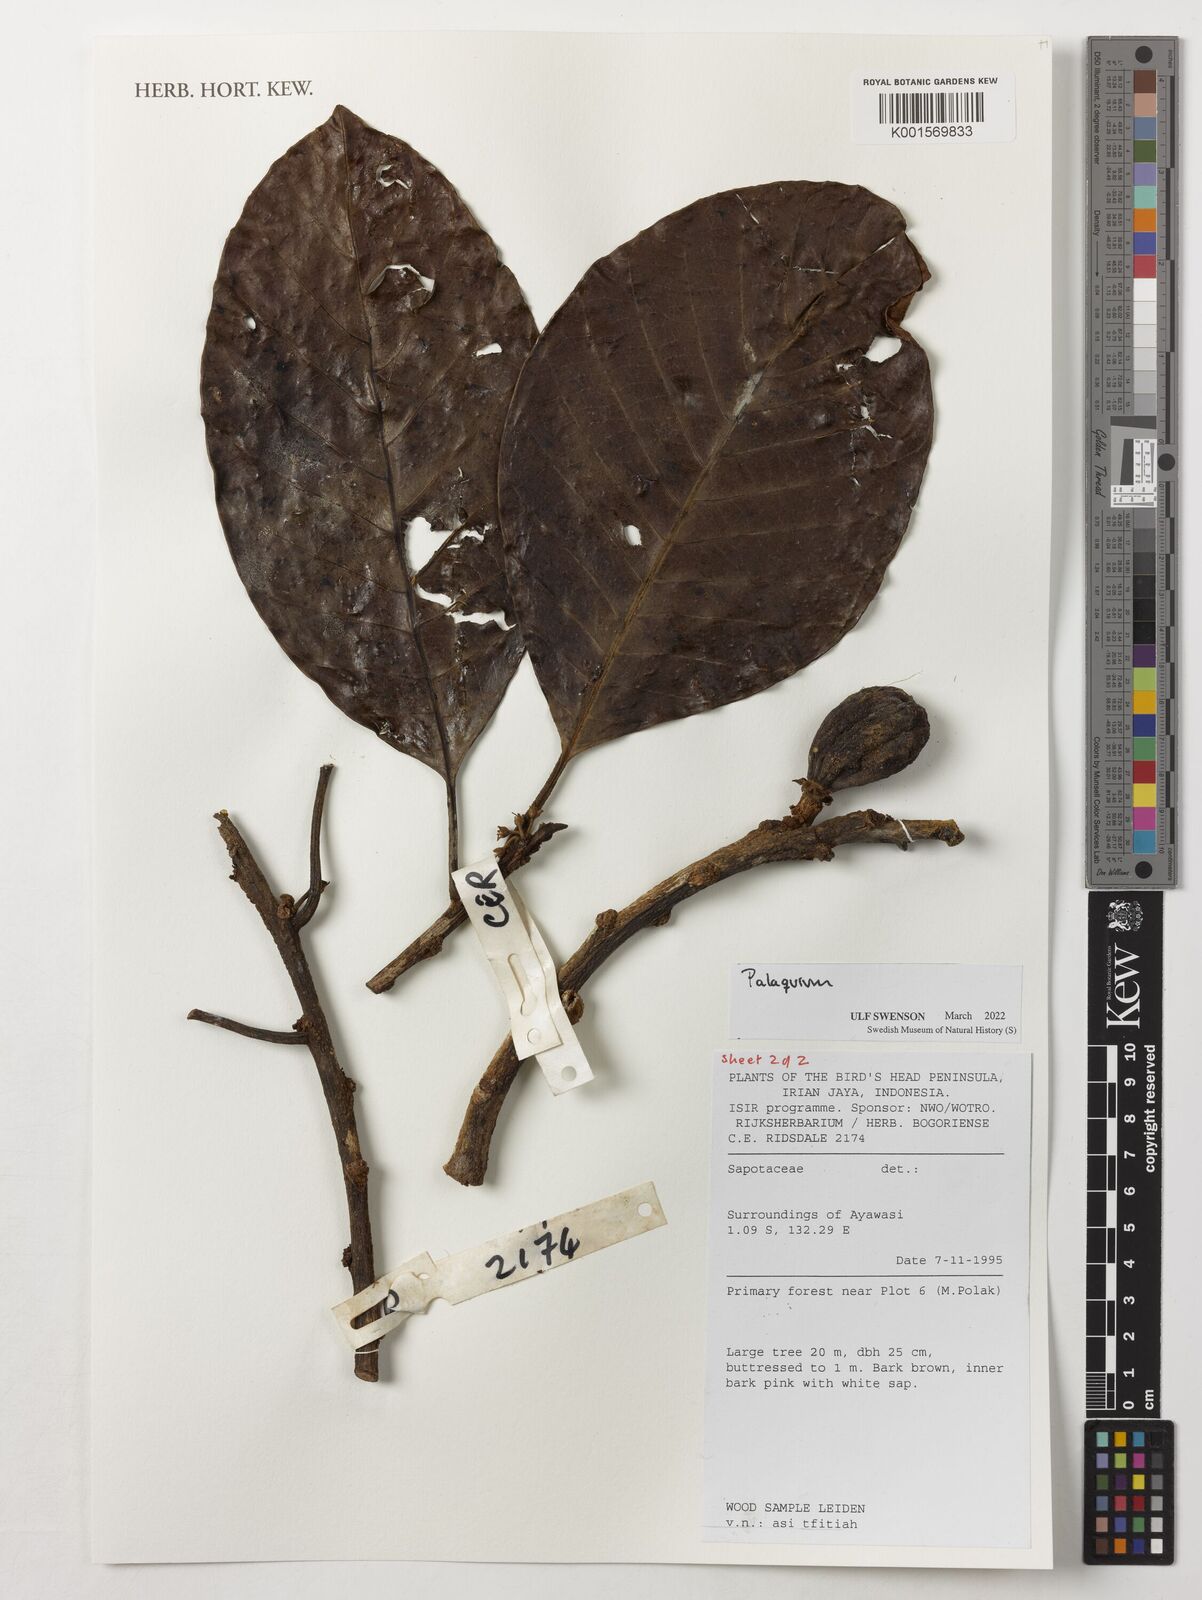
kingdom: Plantae
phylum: Tracheophyta
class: Magnoliopsida
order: Ericales
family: Sapotaceae
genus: Palaquium
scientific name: Palaquium
